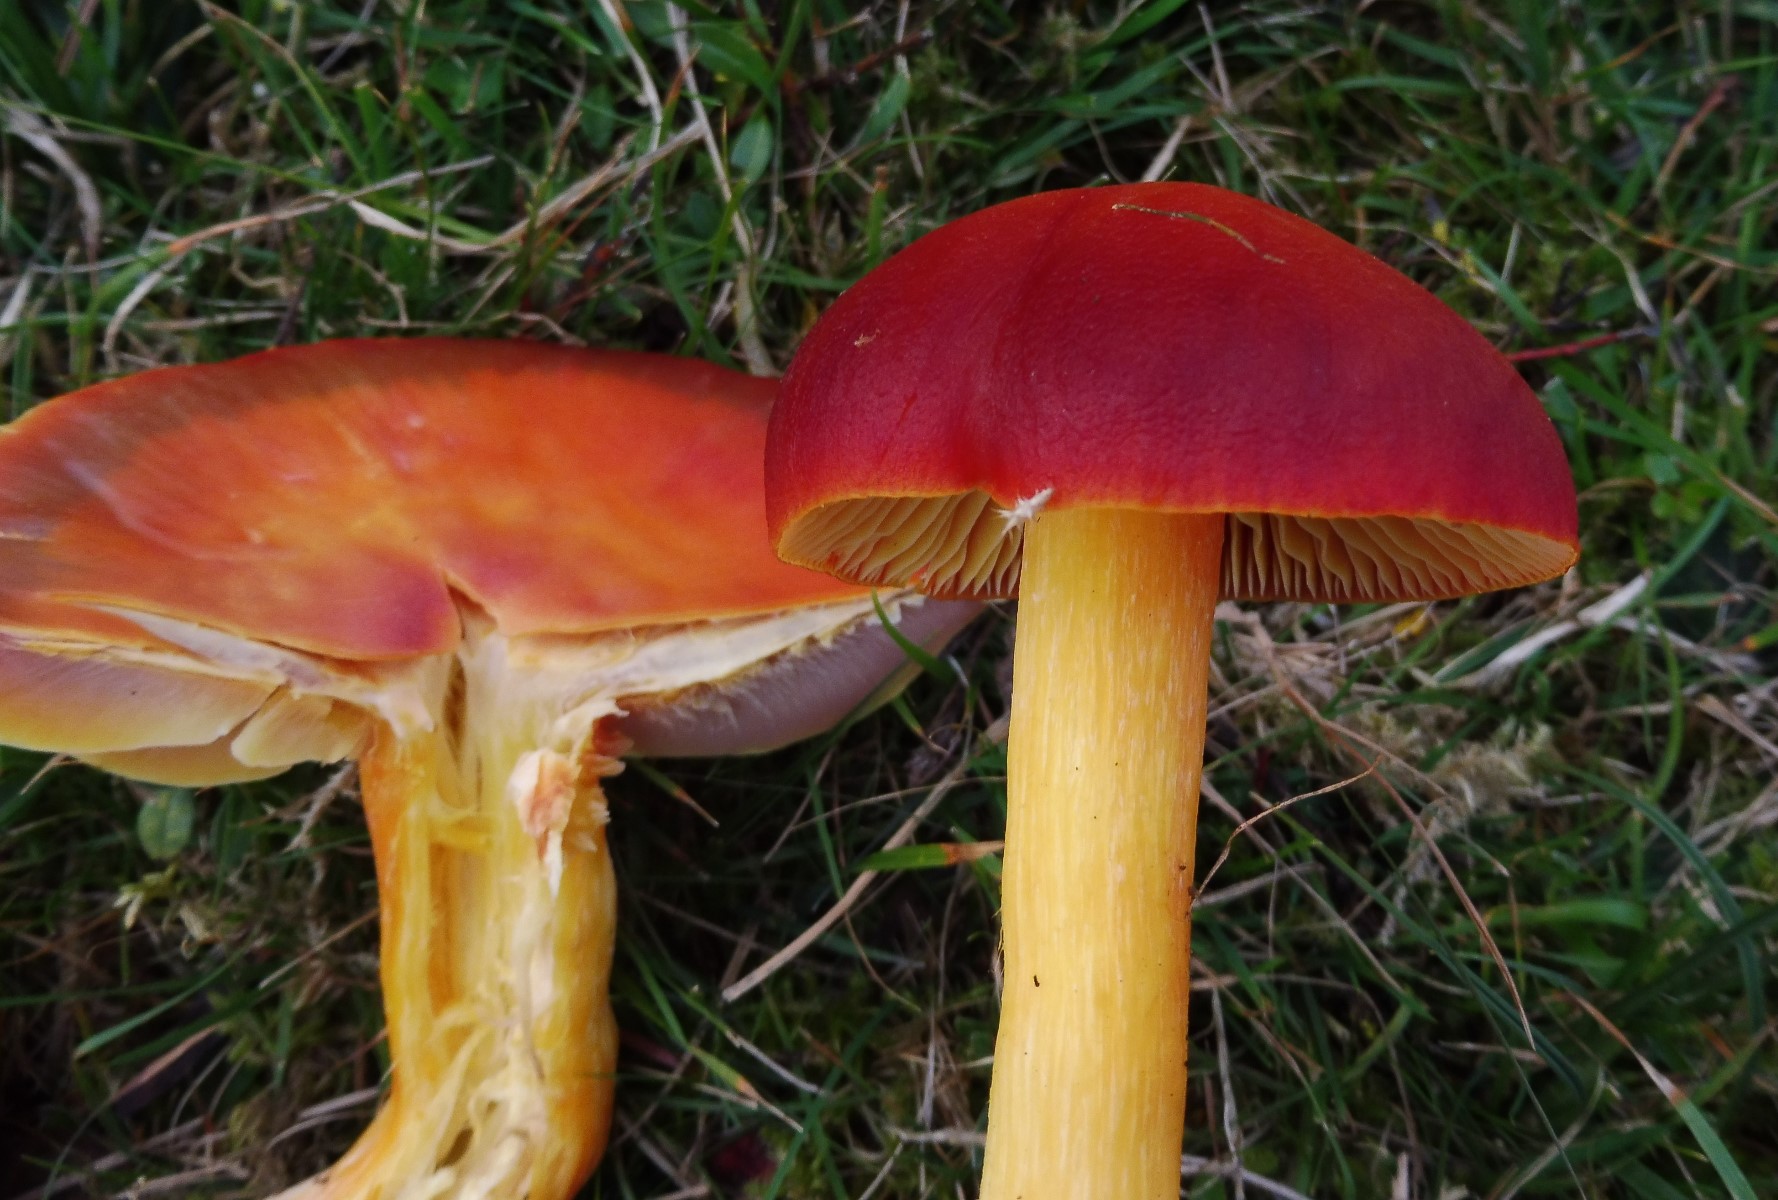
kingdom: Fungi
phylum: Basidiomycota
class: Agaricomycetes
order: Agaricales
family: Hygrophoraceae
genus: Hygrocybe
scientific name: Hygrocybe punicea
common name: skarlagen-vokshat
